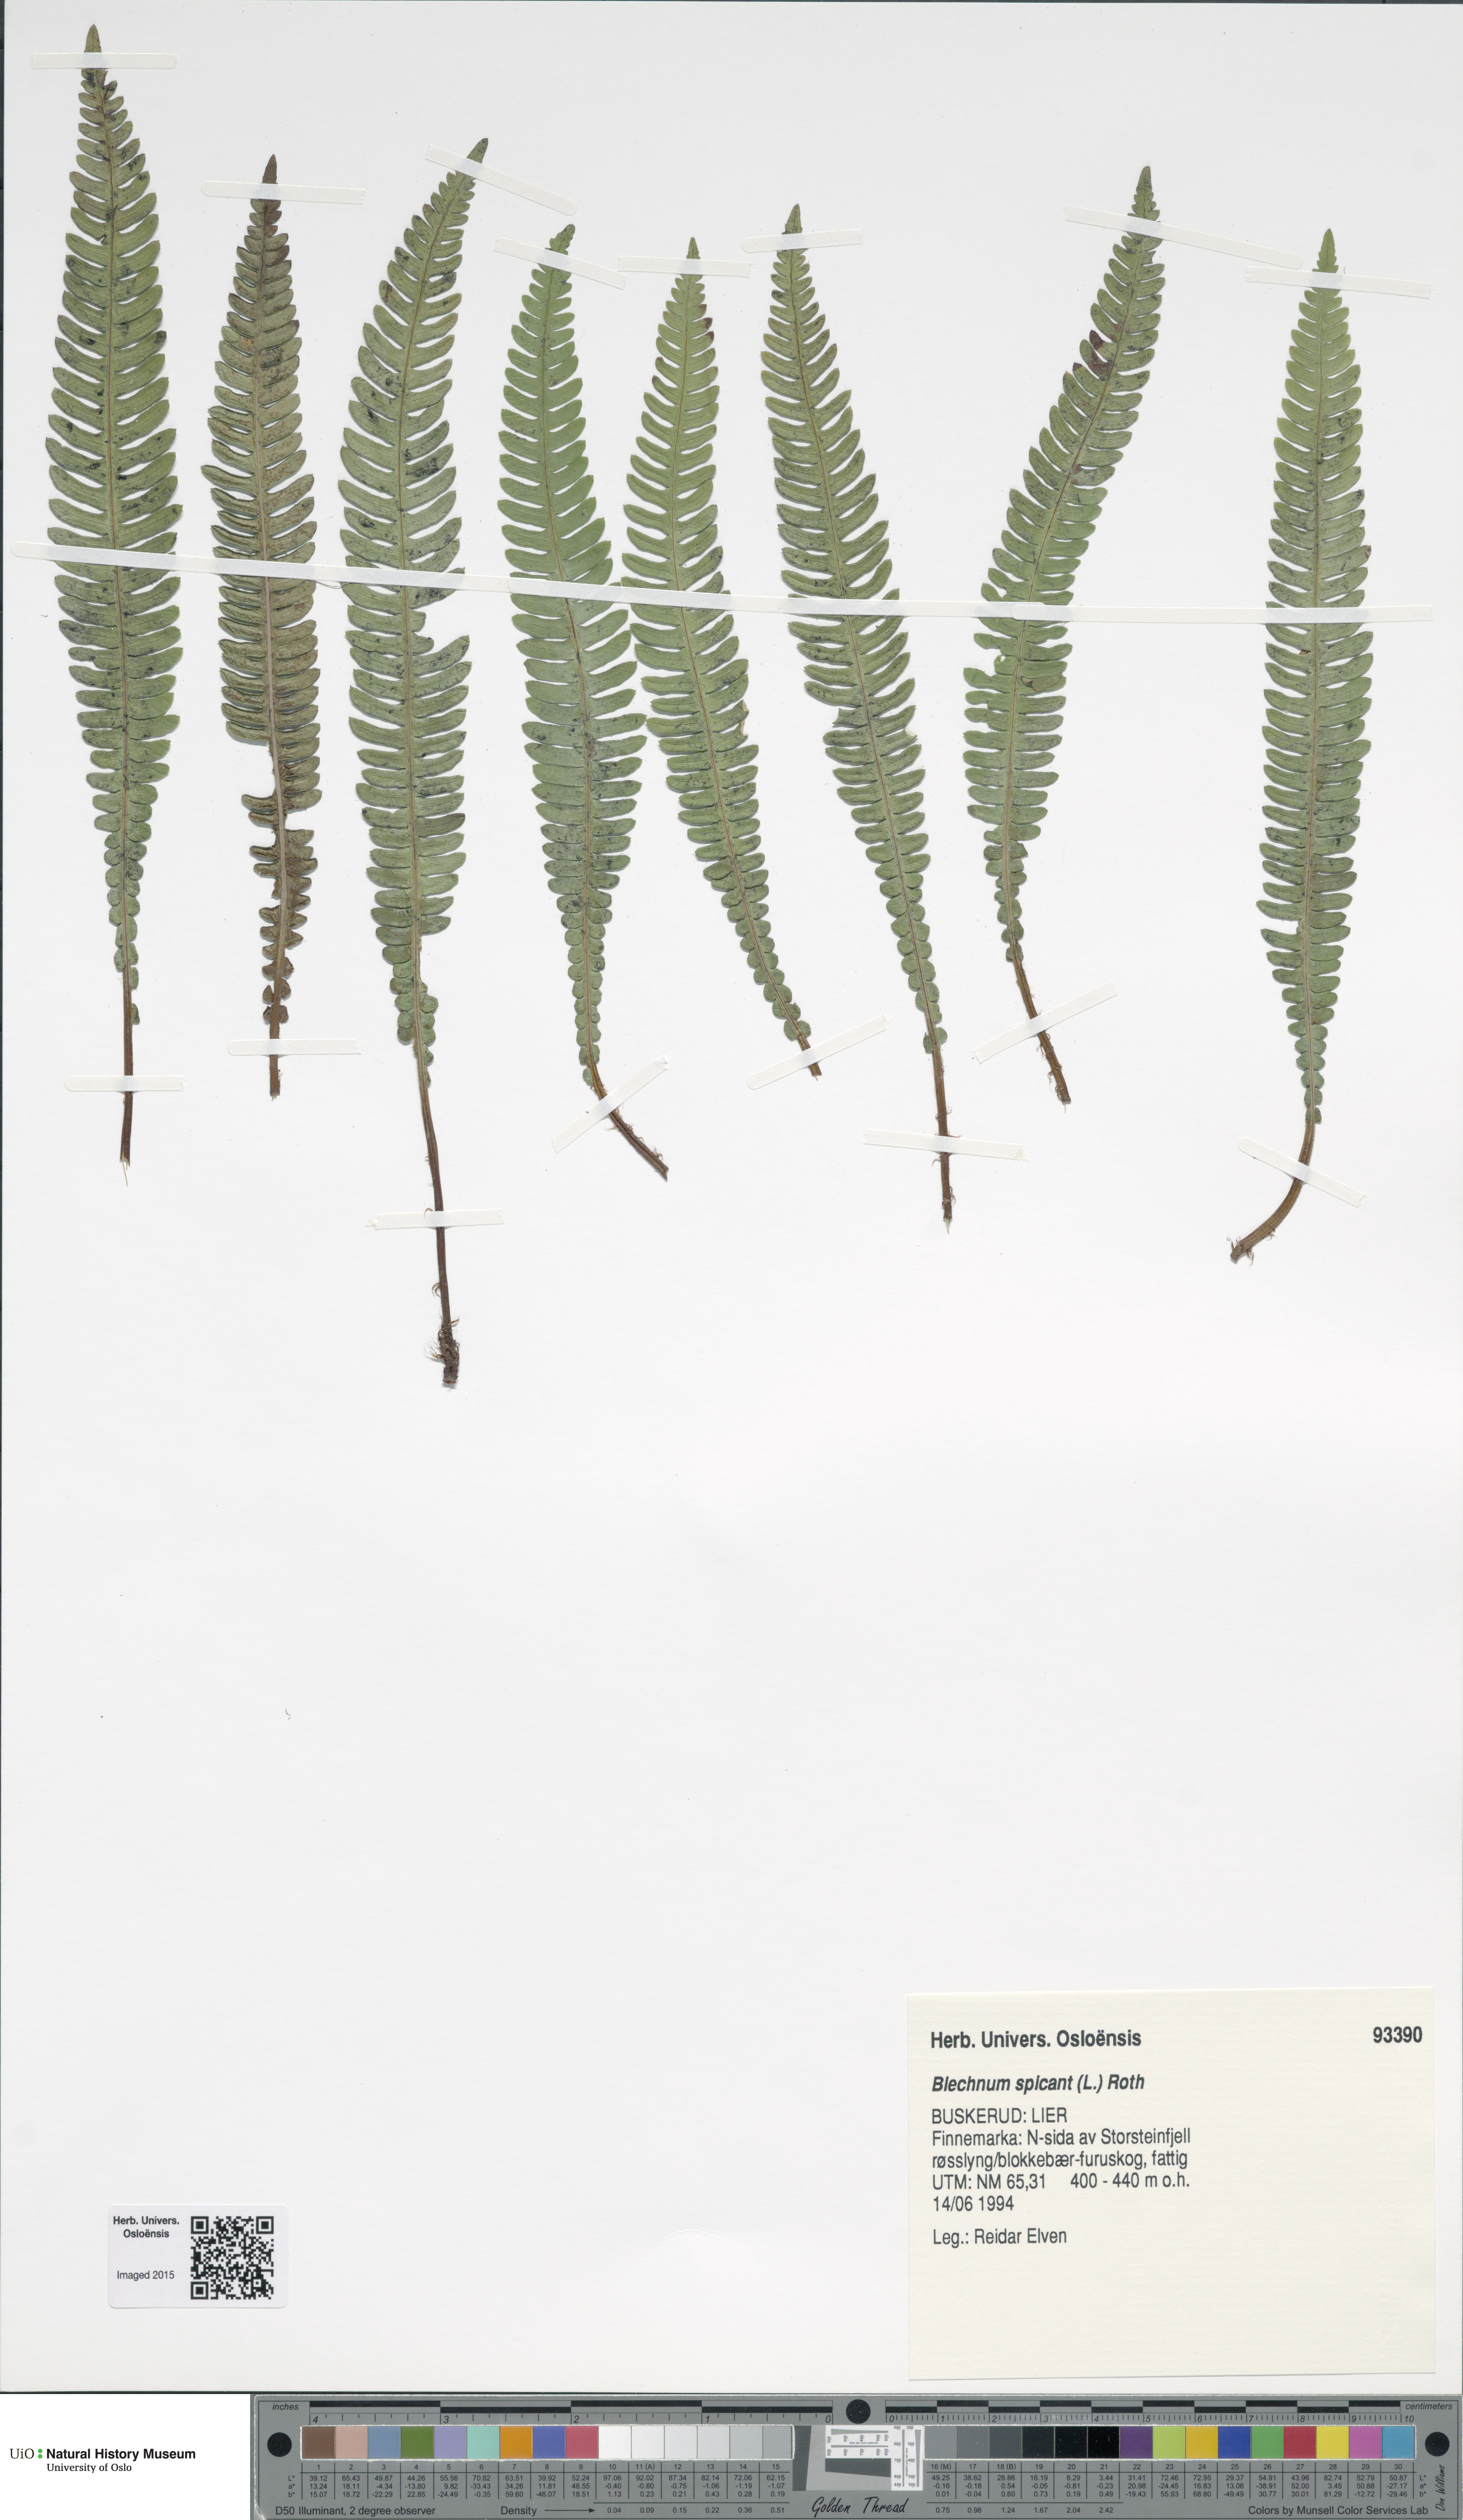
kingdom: Plantae
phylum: Tracheophyta
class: Polypodiopsida
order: Polypodiales
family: Blechnaceae
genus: Struthiopteris
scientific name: Struthiopteris spicant
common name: Deer fern
